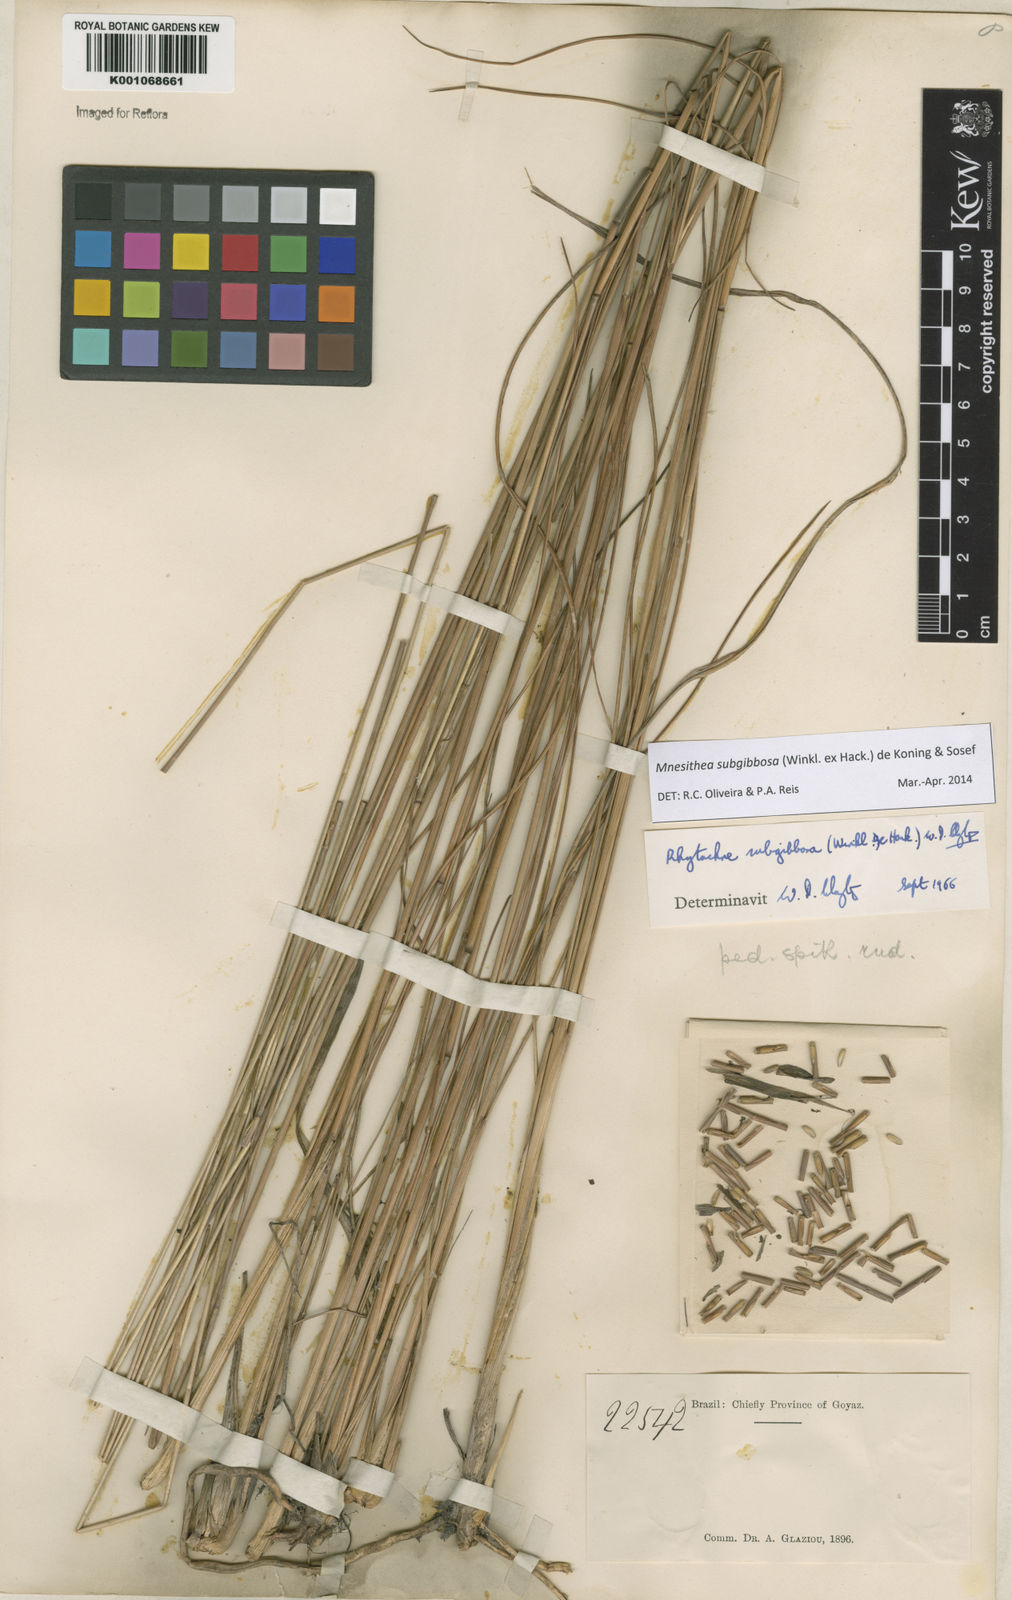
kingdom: Plantae
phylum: Tracheophyta
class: Liliopsida
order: Poales
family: Poaceae
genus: Rhytachne
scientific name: Rhytachne subgibbosa
